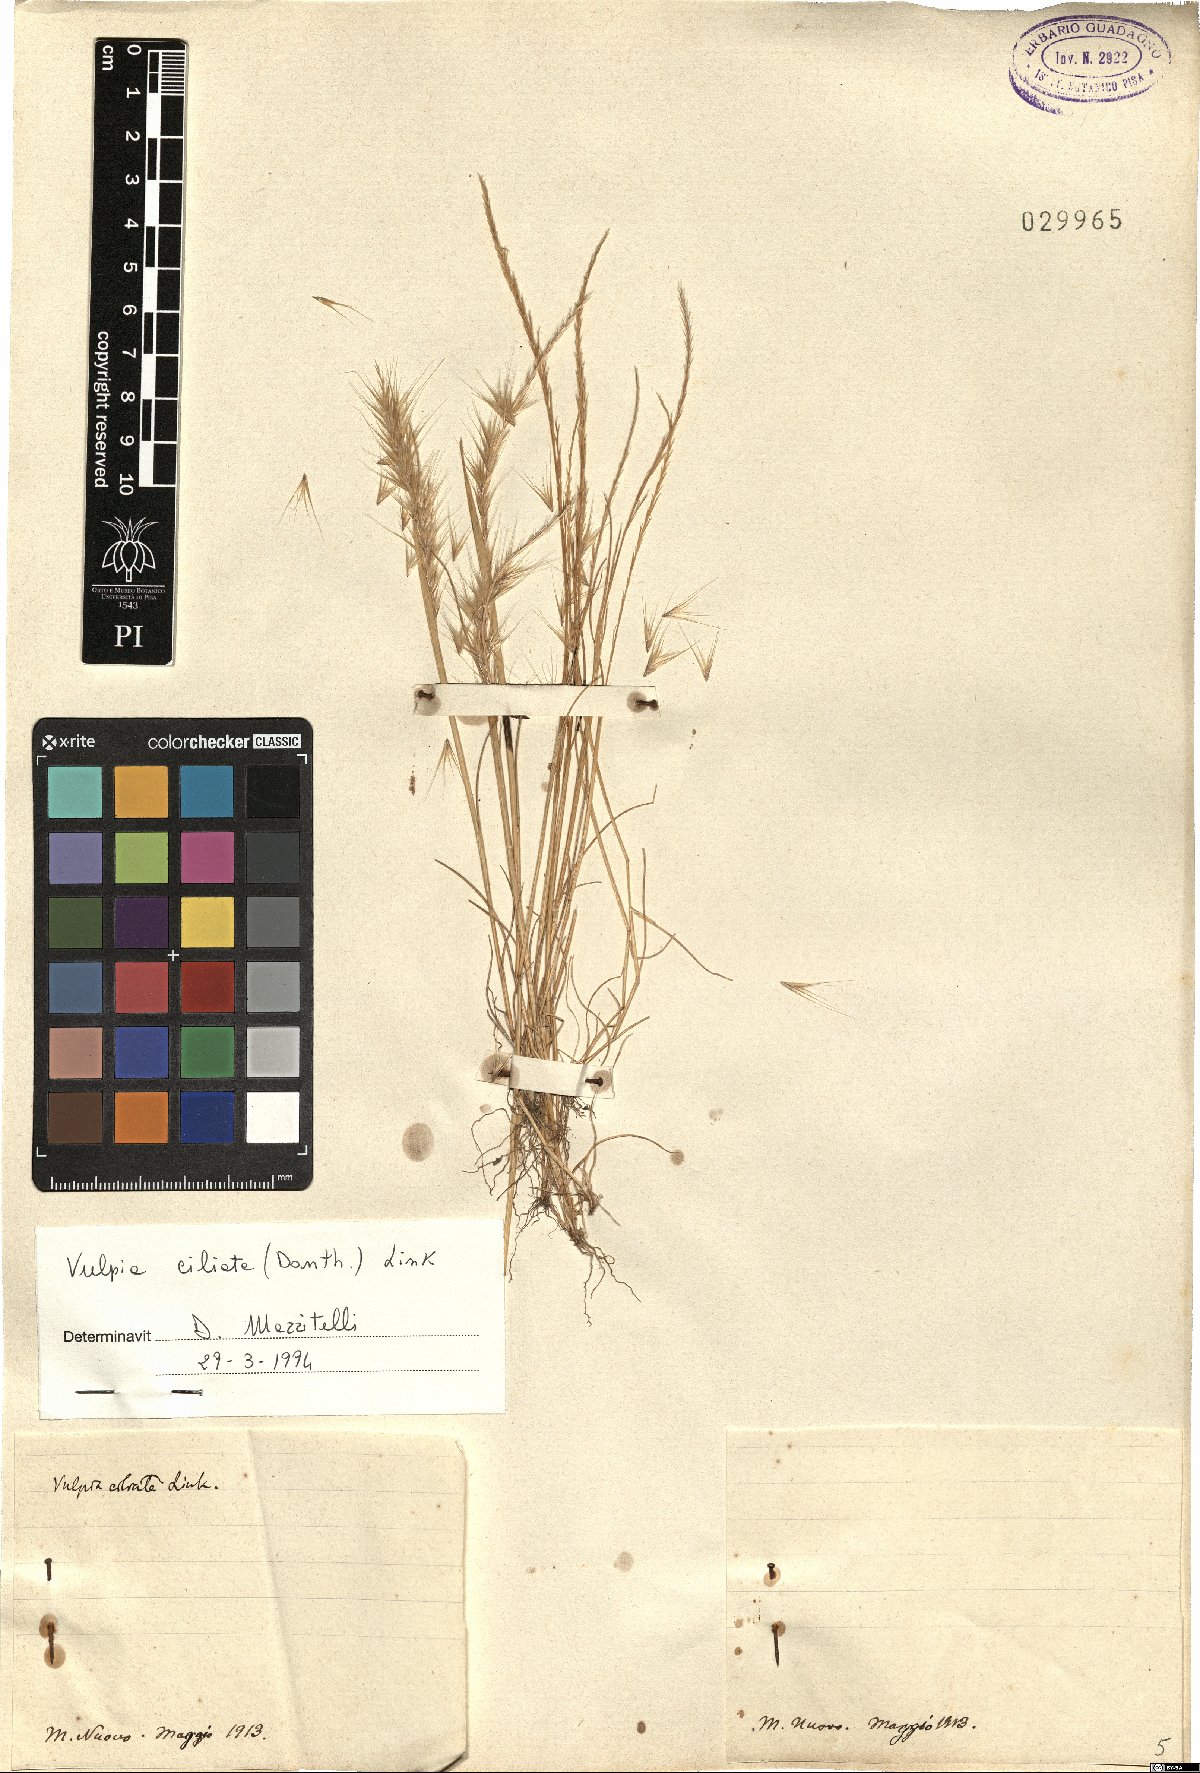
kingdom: Plantae
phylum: Tracheophyta
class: Liliopsida
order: Poales
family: Poaceae
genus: Festuca
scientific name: Festuca ambigua
